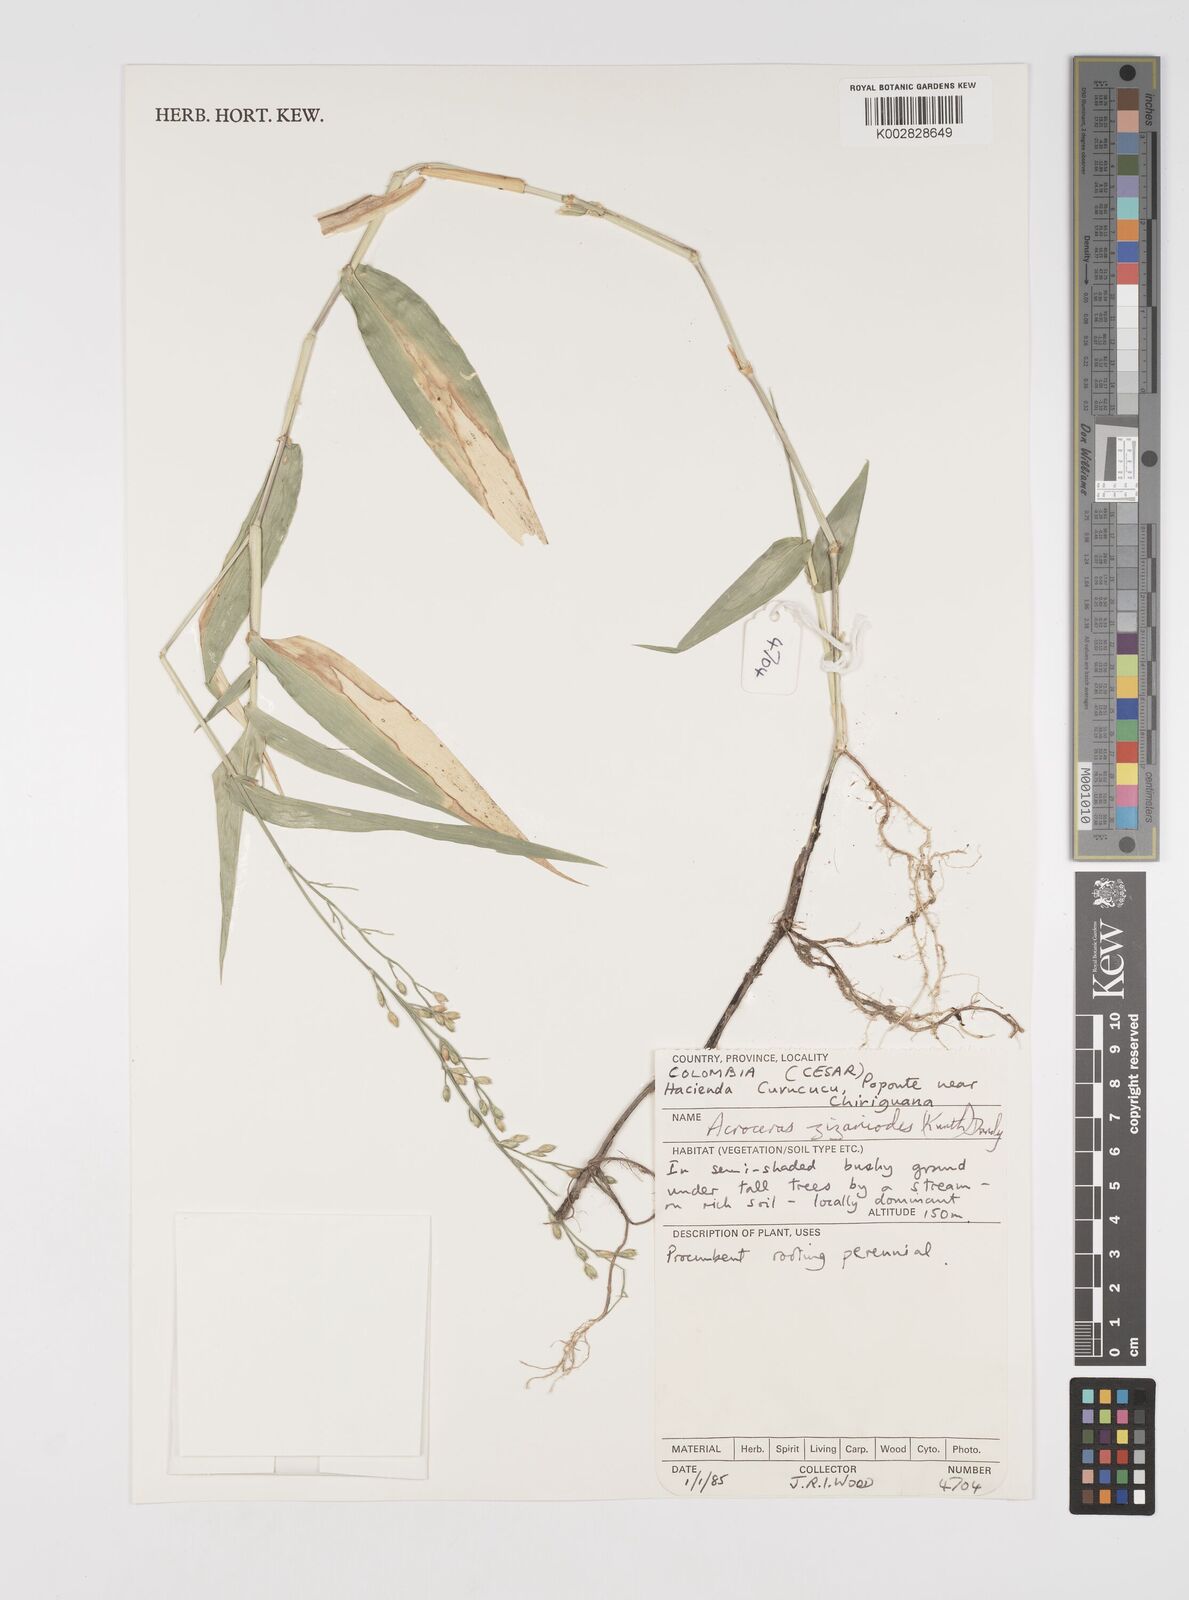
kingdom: Plantae
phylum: Tracheophyta
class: Liliopsida
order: Poales
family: Poaceae
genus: Acroceras
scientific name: Acroceras zizanioides
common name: Oat grass
